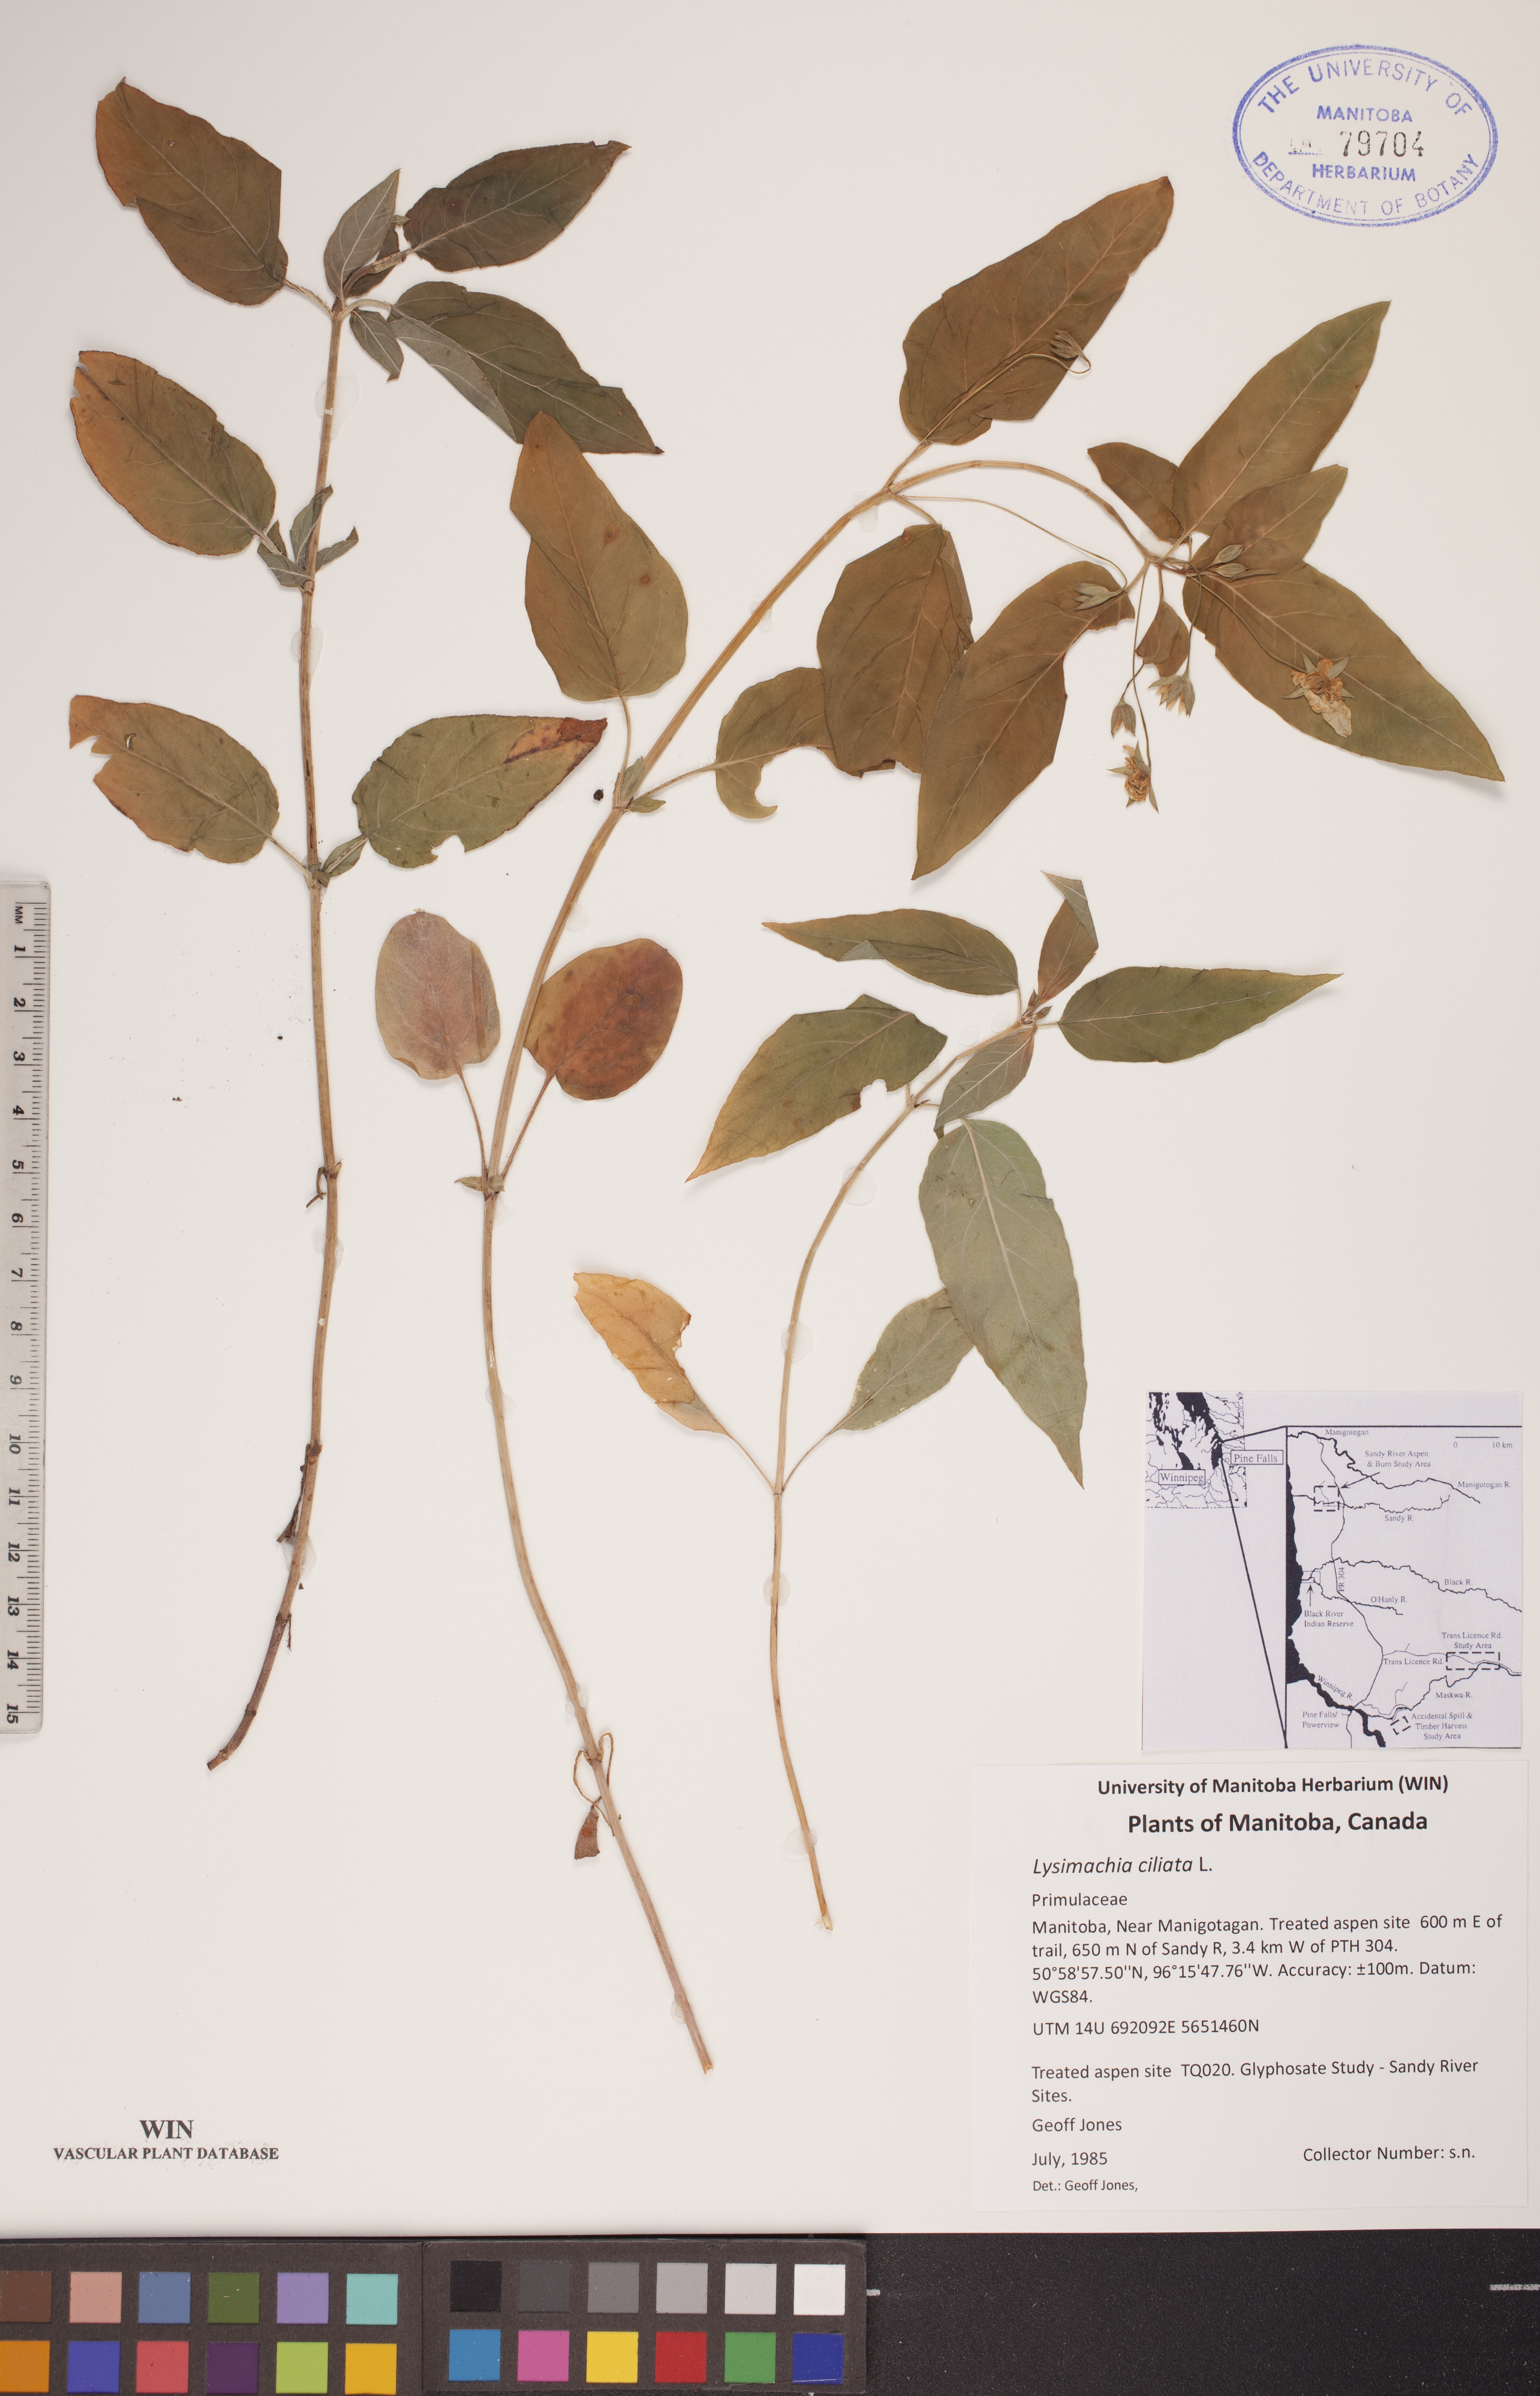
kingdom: Plantae
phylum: Tracheophyta
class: Magnoliopsida
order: Ericales
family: Primulaceae
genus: Lysimachia
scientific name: Lysimachia ciliata
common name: Fringed loosestrife
